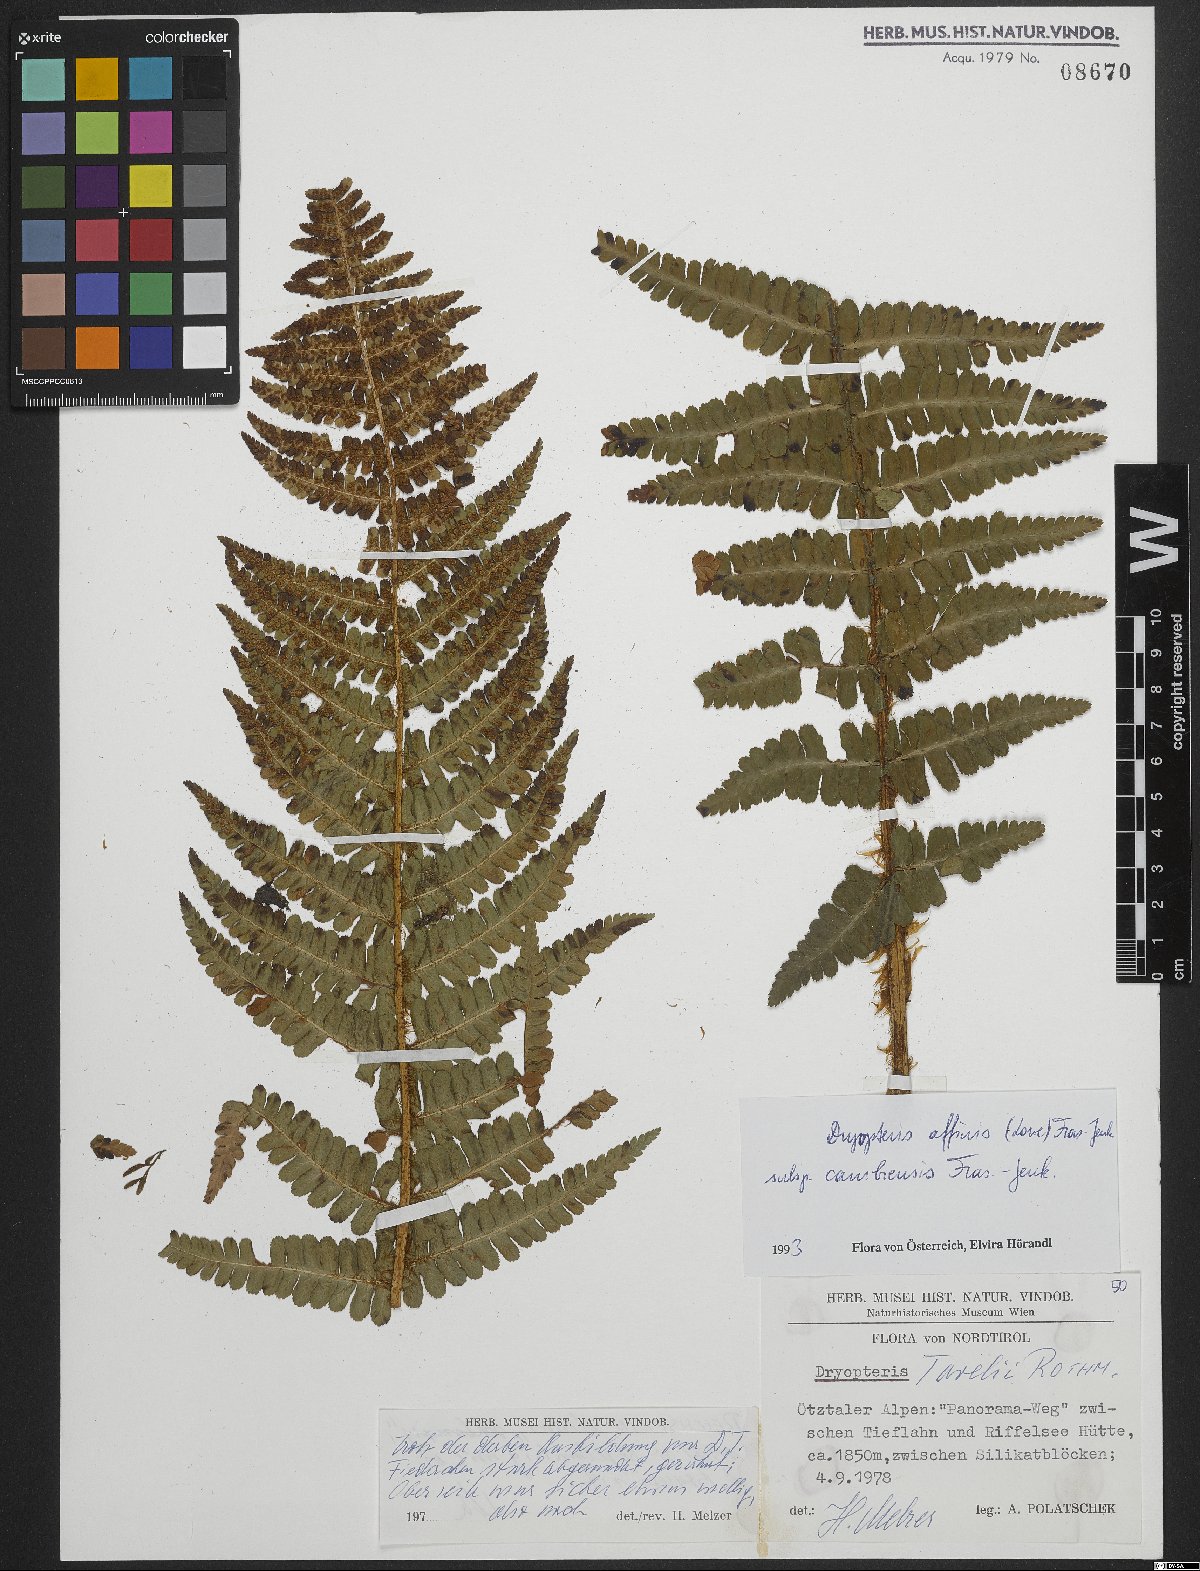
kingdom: Plantae
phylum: Tracheophyta
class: Polypodiopsida
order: Polypodiales
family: Dryopteridaceae
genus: Dryopteris
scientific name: Dryopteris cambrensis
